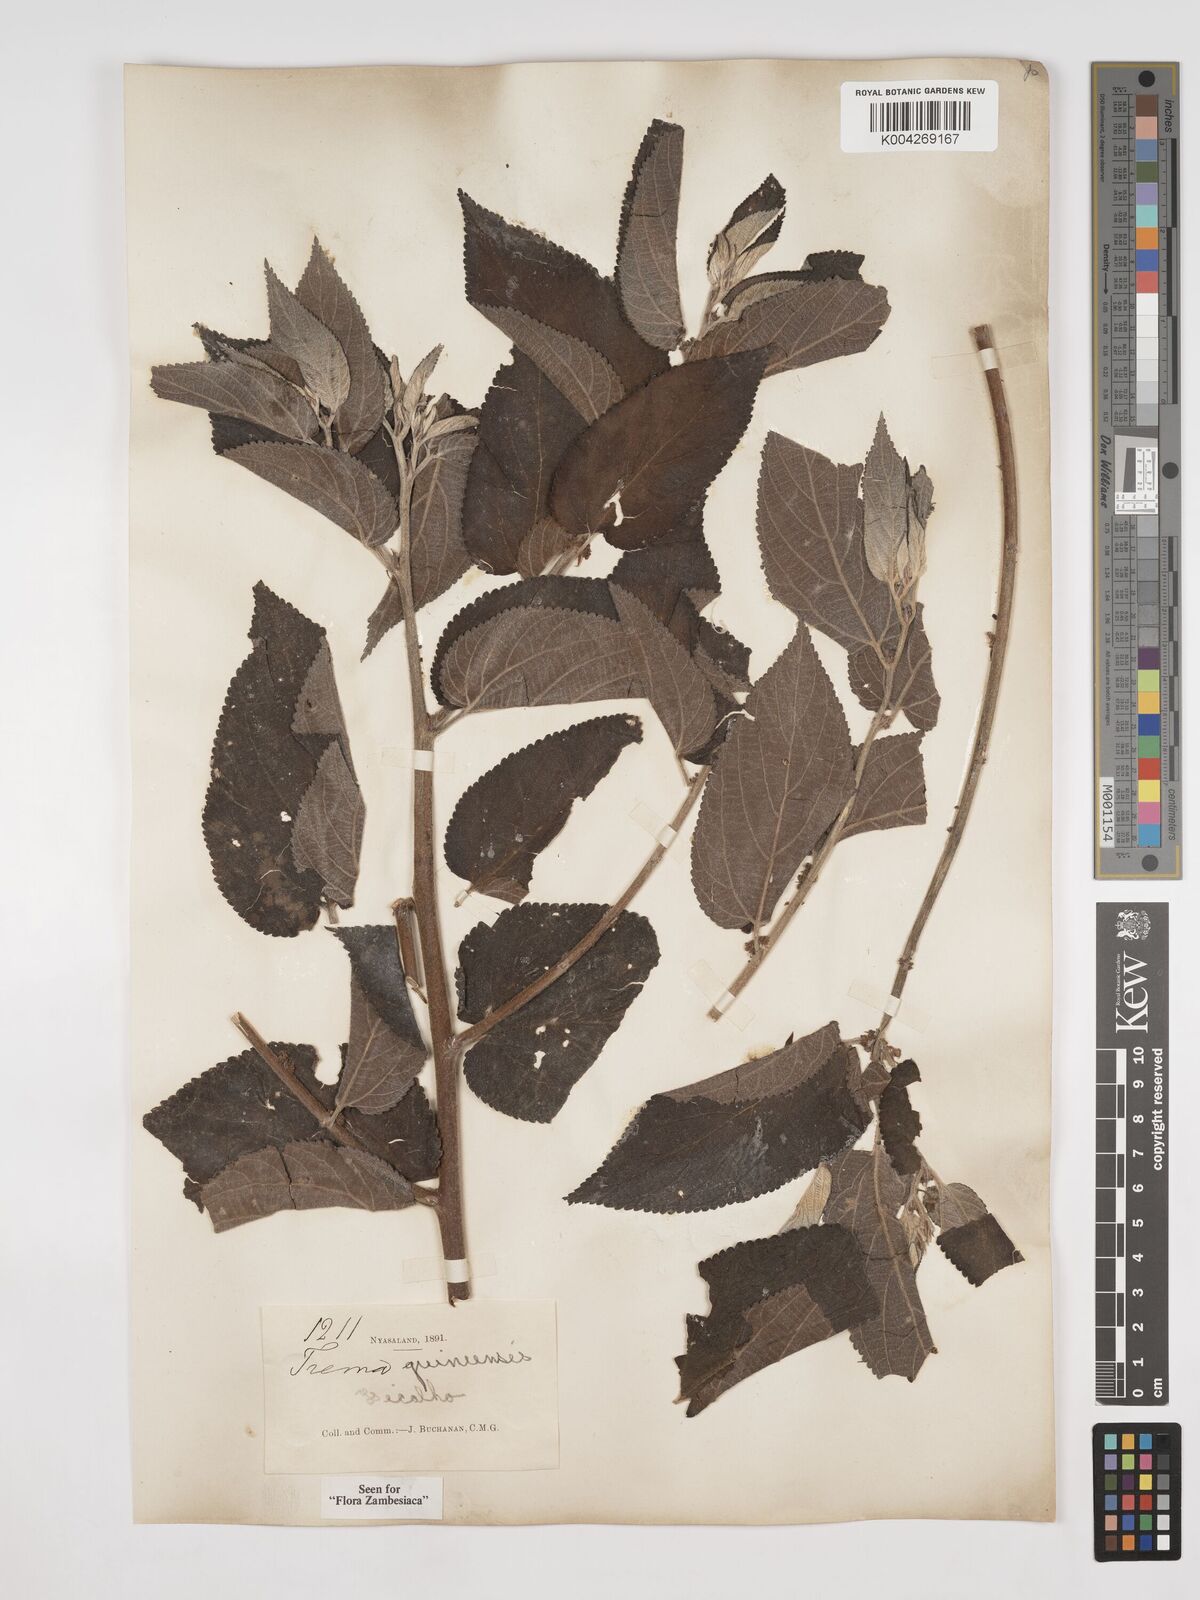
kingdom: Plantae
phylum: Tracheophyta
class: Magnoliopsida
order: Rosales
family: Cannabaceae
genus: Trema
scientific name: Trema orientale
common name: Indian charcoal tree
